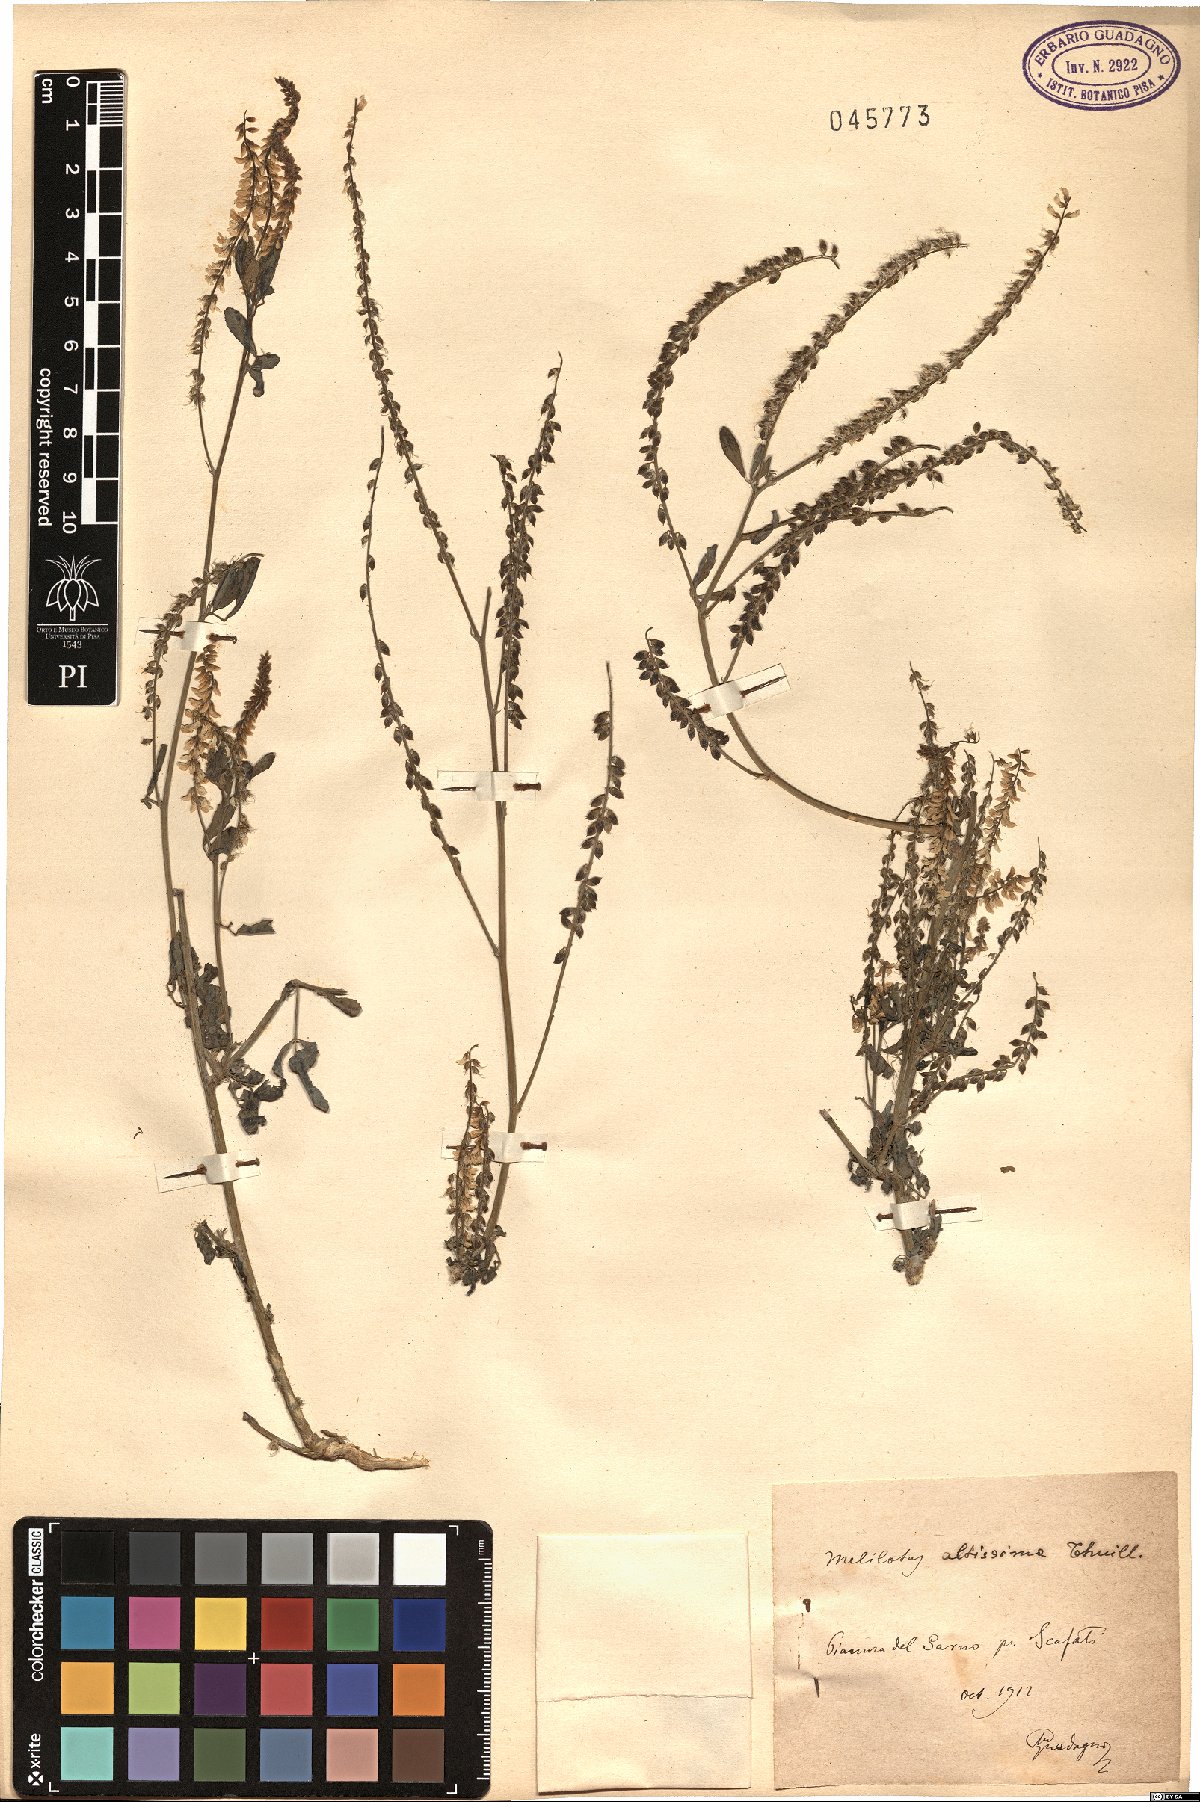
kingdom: Plantae
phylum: Tracheophyta
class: Magnoliopsida
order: Fabales
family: Fabaceae
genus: Melilotus
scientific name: Melilotus altissimus
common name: Tall melilot
